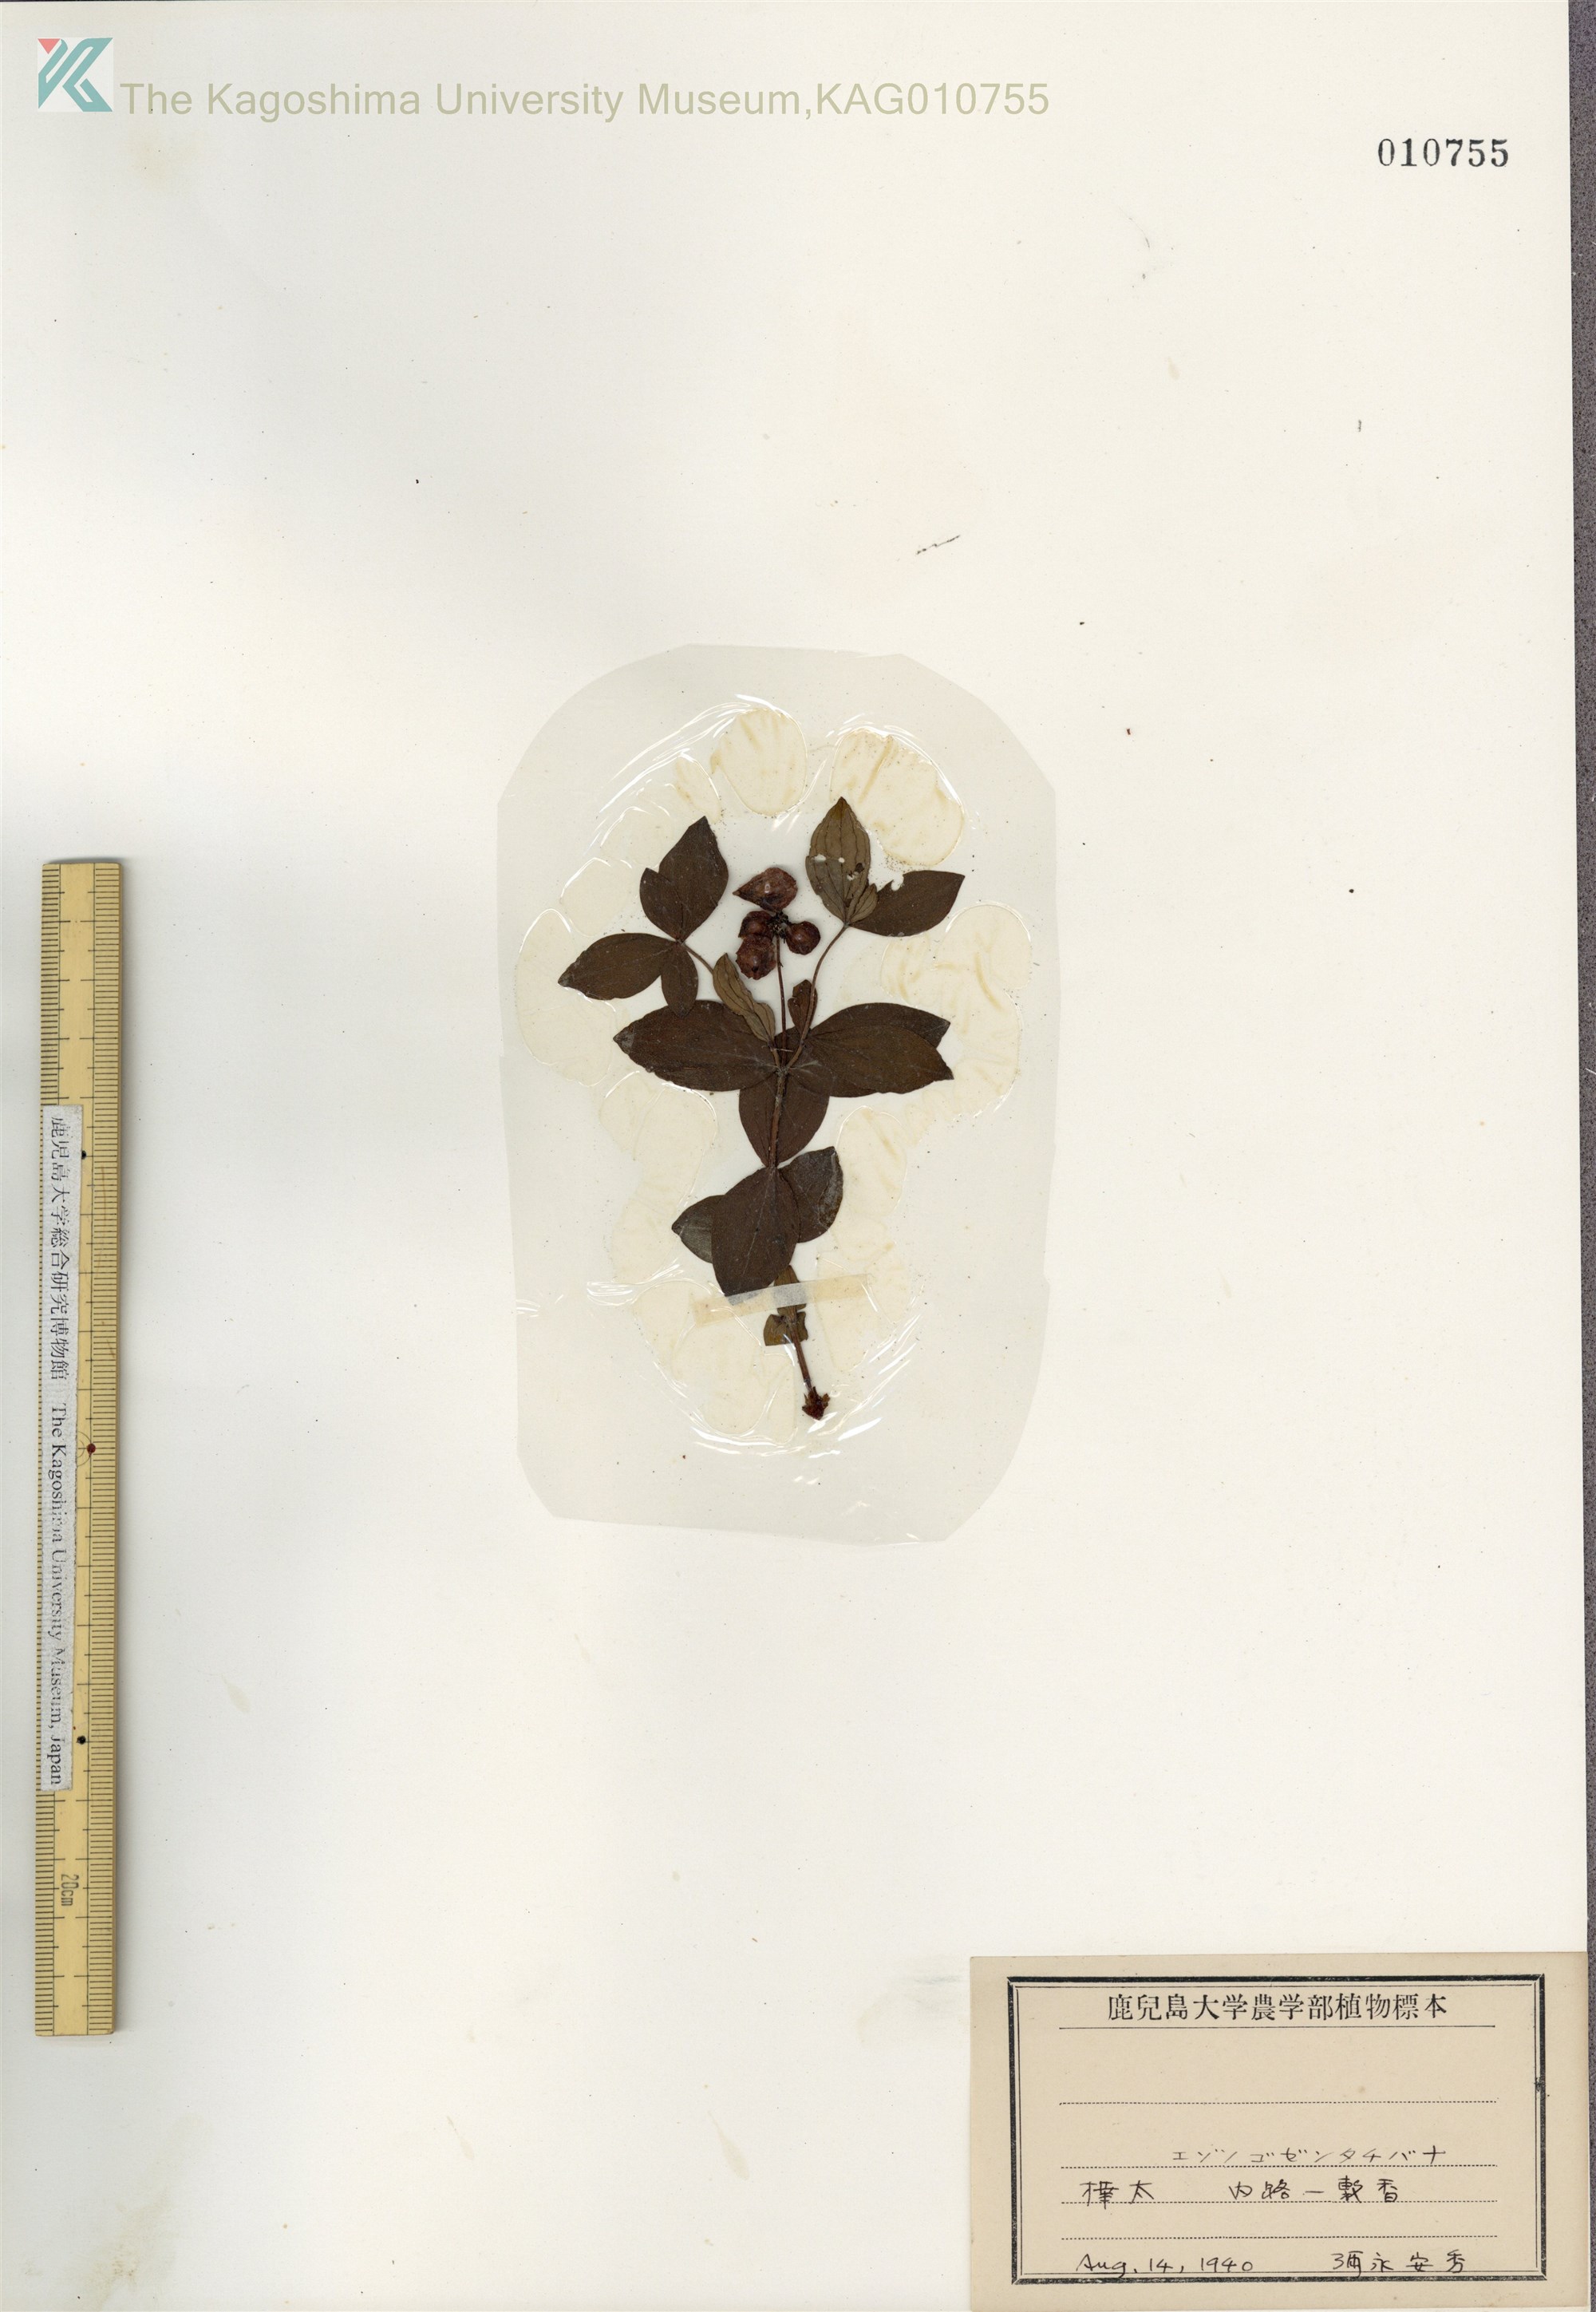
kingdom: Plantae
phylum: Tracheophyta
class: Magnoliopsida
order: Cornales
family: Cornaceae
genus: Cornus
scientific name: Cornus suecica
